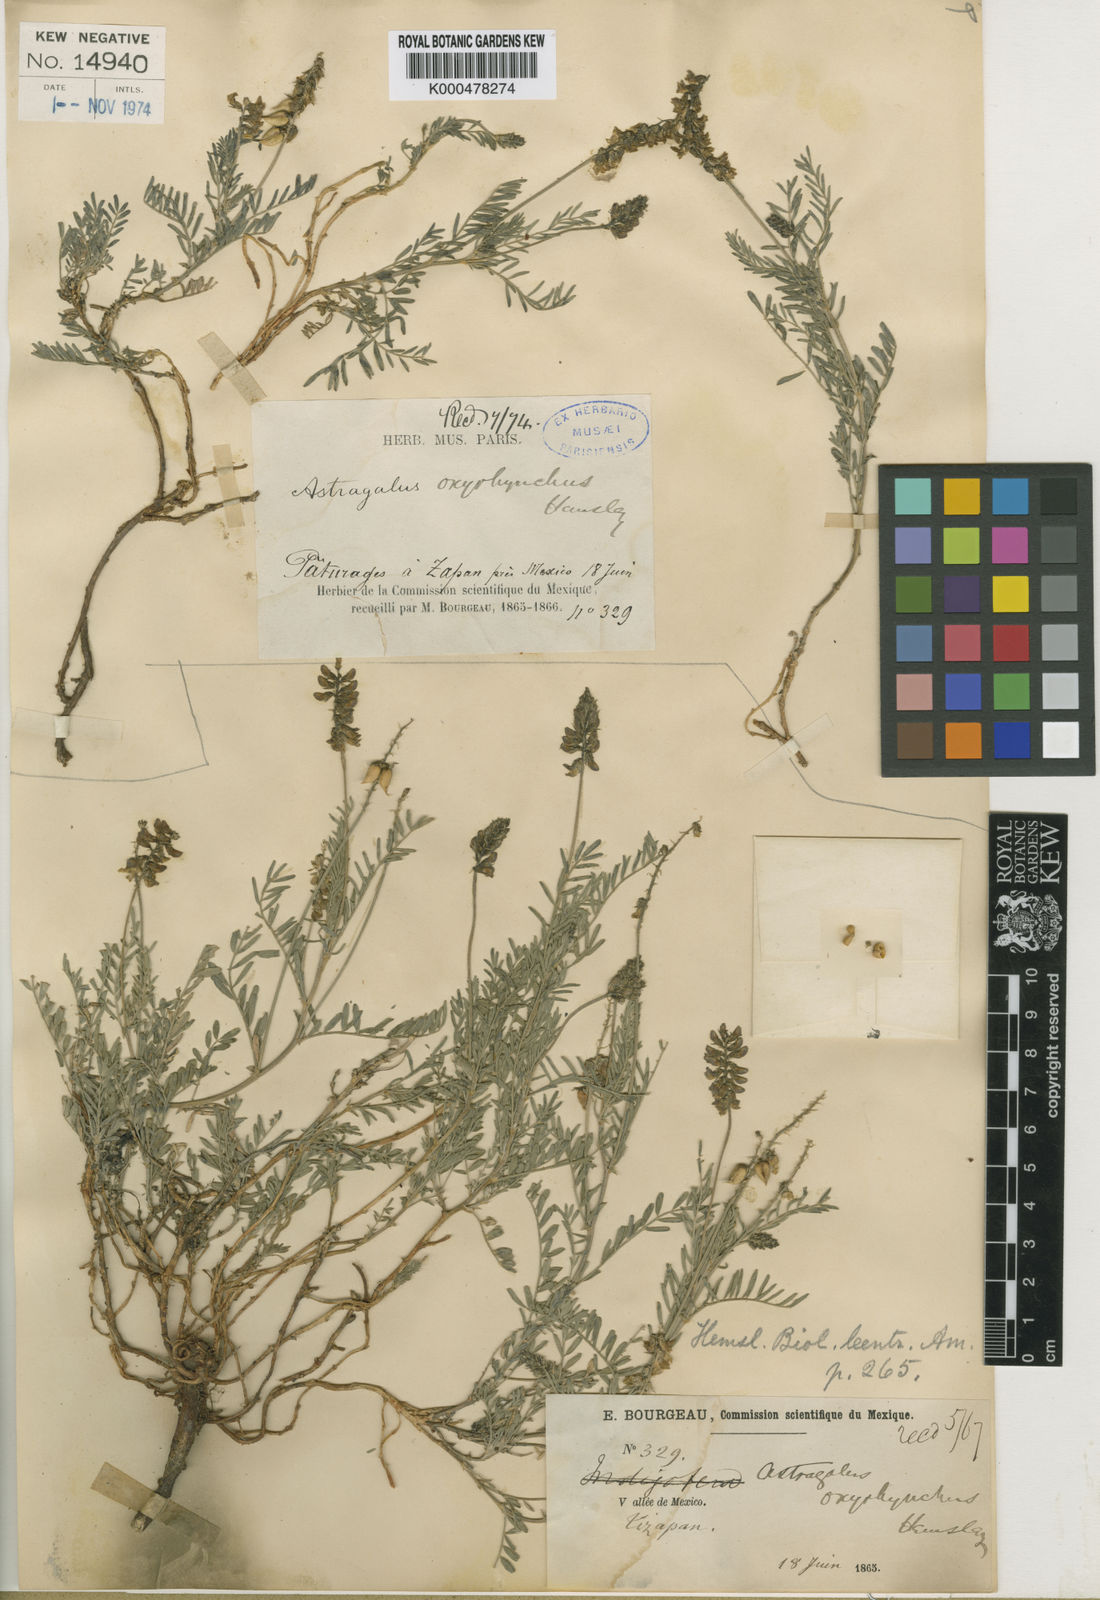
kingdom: Plantae
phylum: Tracheophyta
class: Magnoliopsida
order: Fabales
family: Fabaceae
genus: Astragalus
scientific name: Astragalus oxyrhynchus
